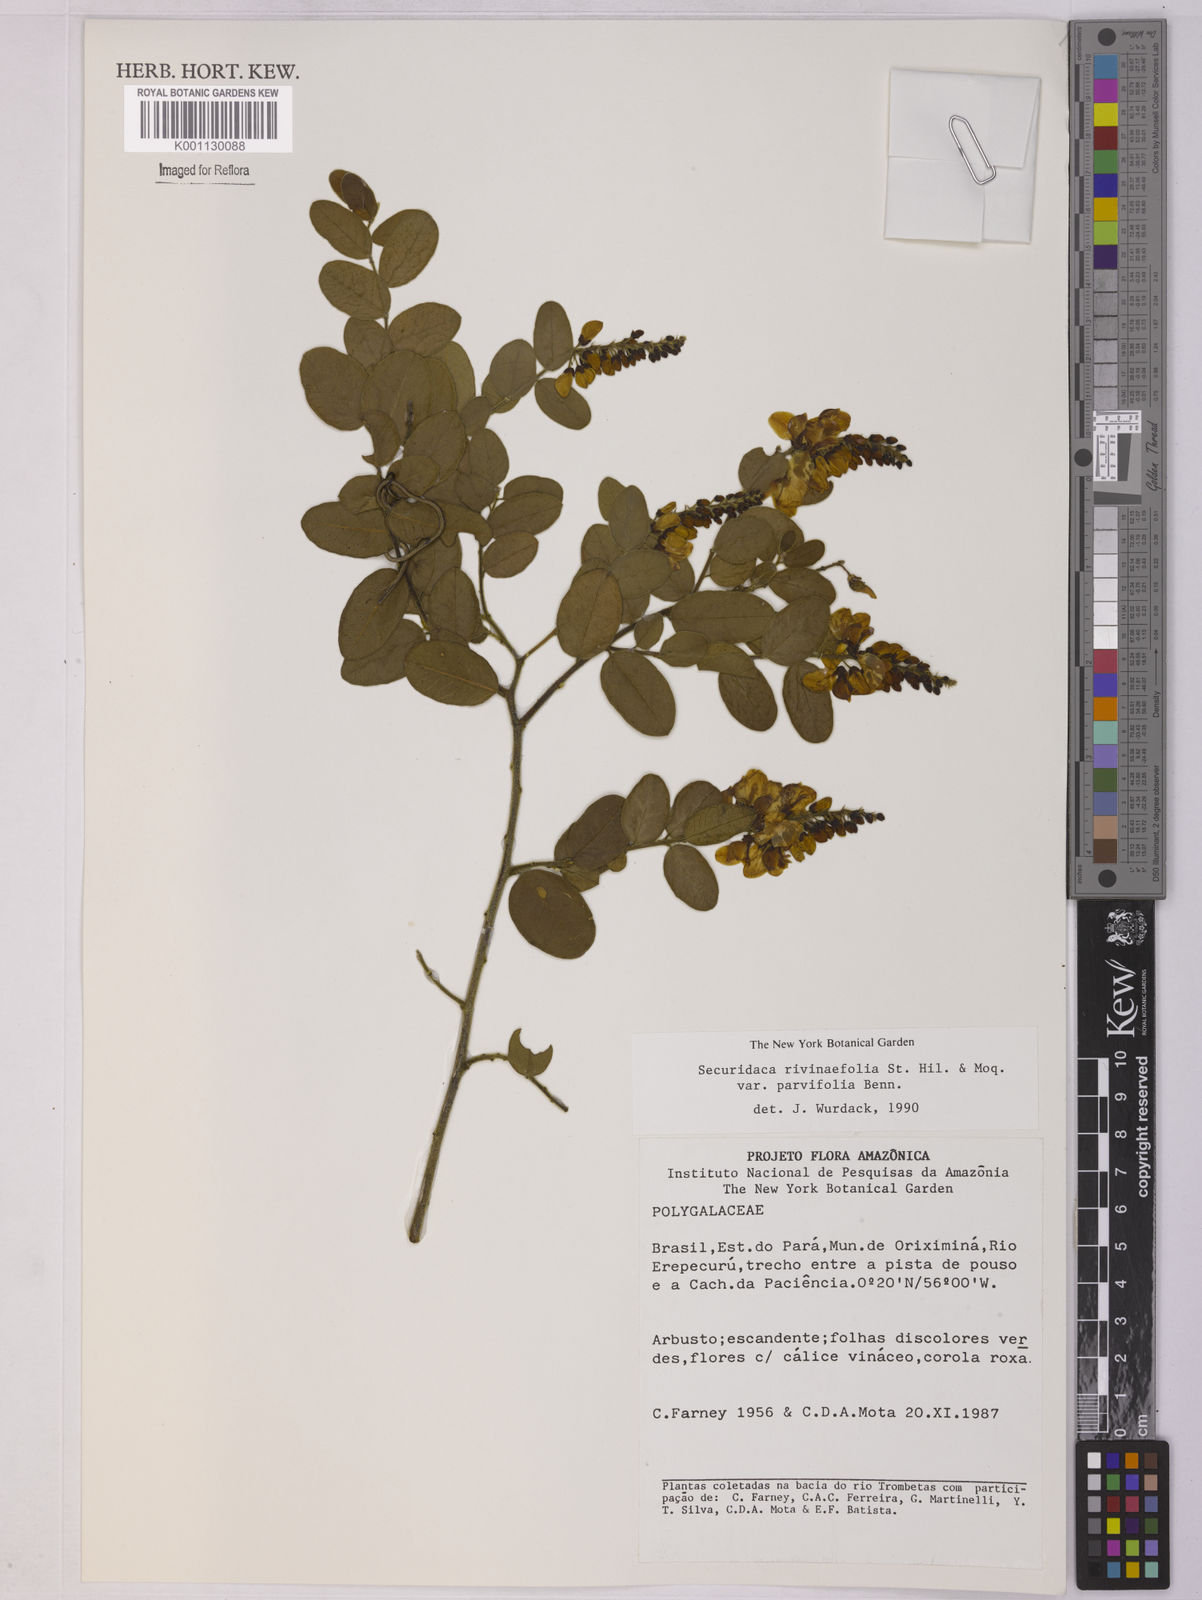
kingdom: Plantae
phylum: Tracheophyta
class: Magnoliopsida
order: Fabales
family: Polygalaceae
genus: Securidaca
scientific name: Securidaca rivinifolia
